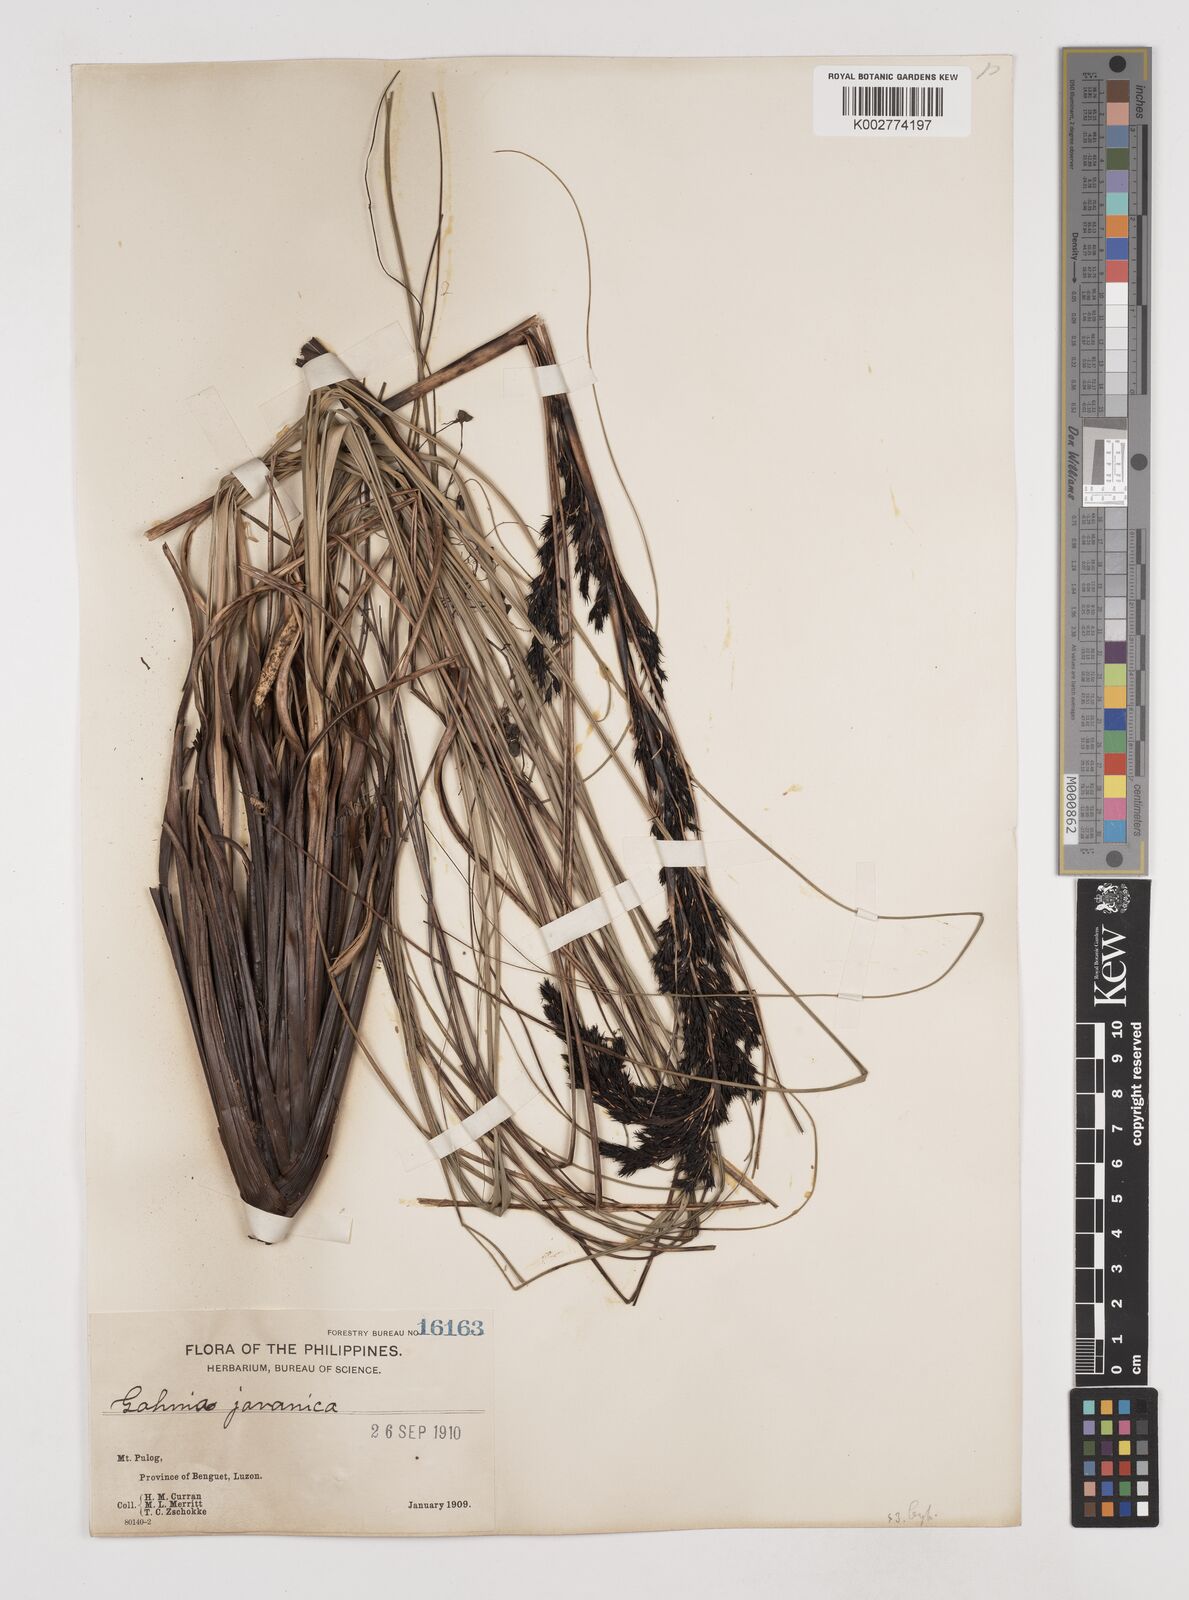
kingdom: Plantae
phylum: Tracheophyta
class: Liliopsida
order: Poales
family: Cyperaceae
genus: Gahnia
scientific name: Gahnia javanica
